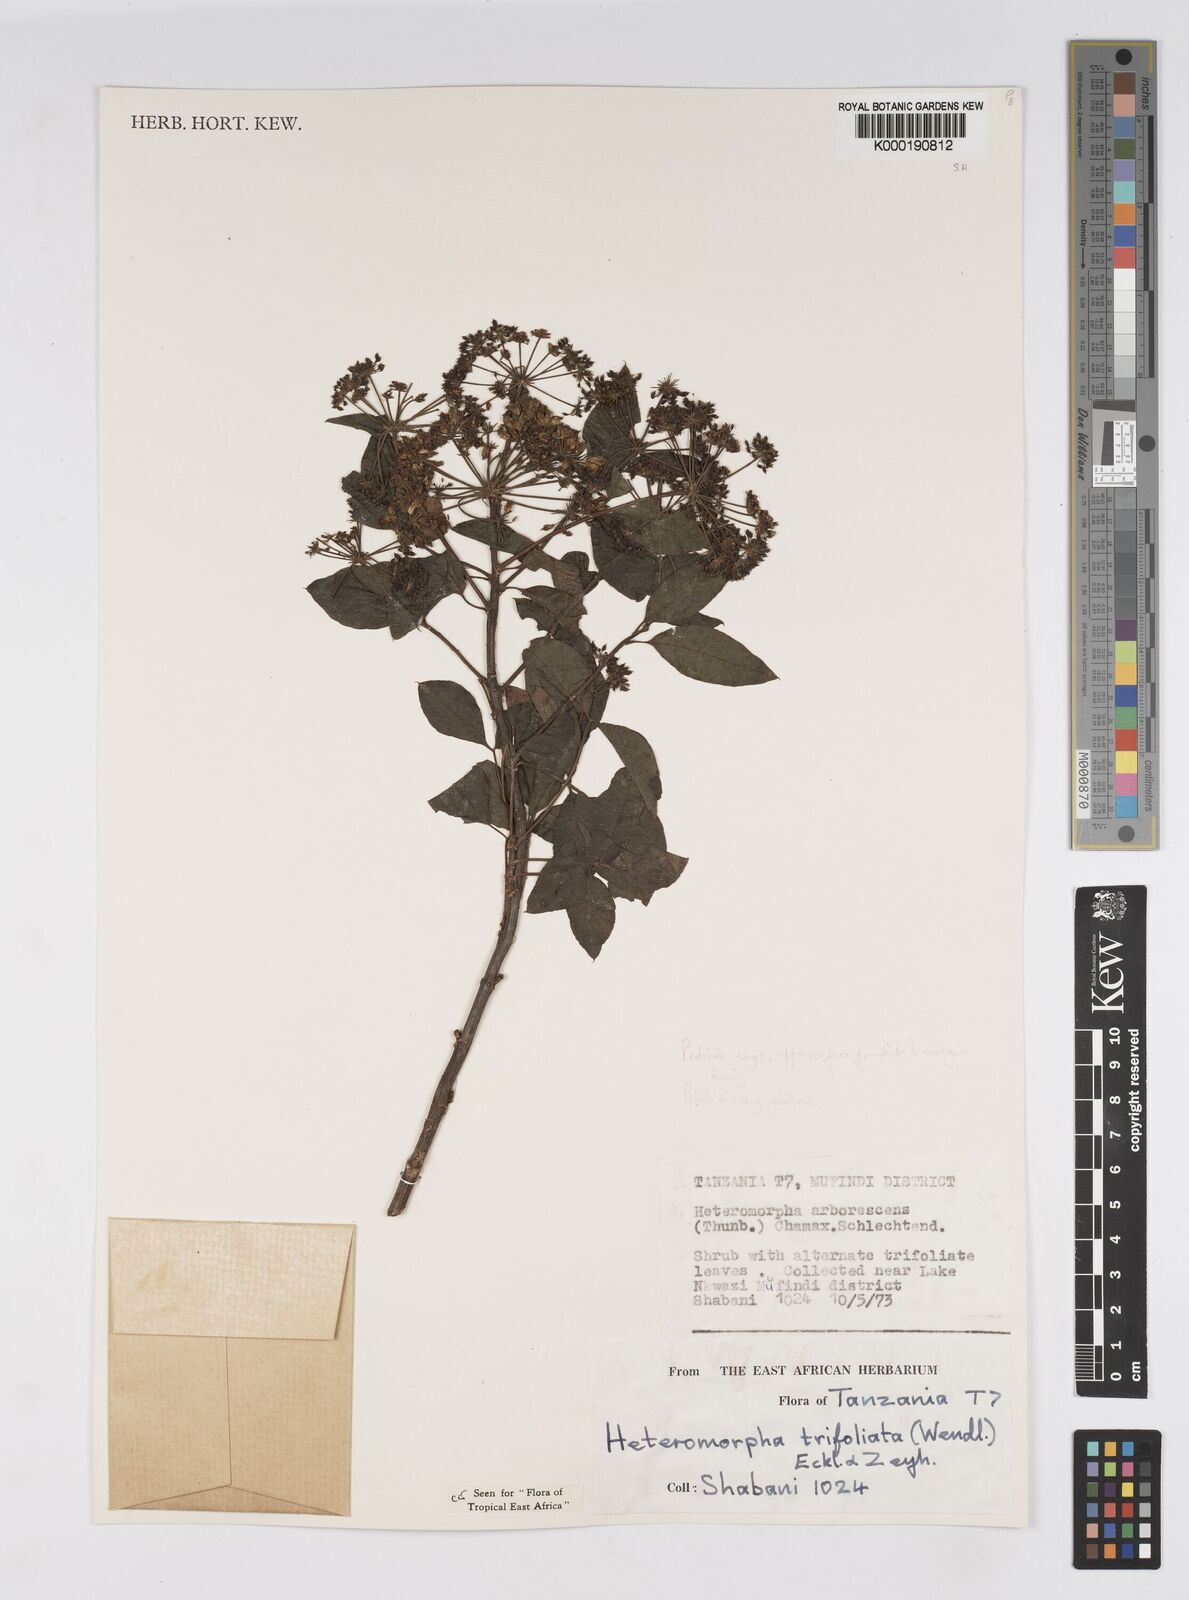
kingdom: Plantae
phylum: Tracheophyta
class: Magnoliopsida
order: Apiales
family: Apiaceae
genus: Heteromorpha
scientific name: Heteromorpha arborescens
